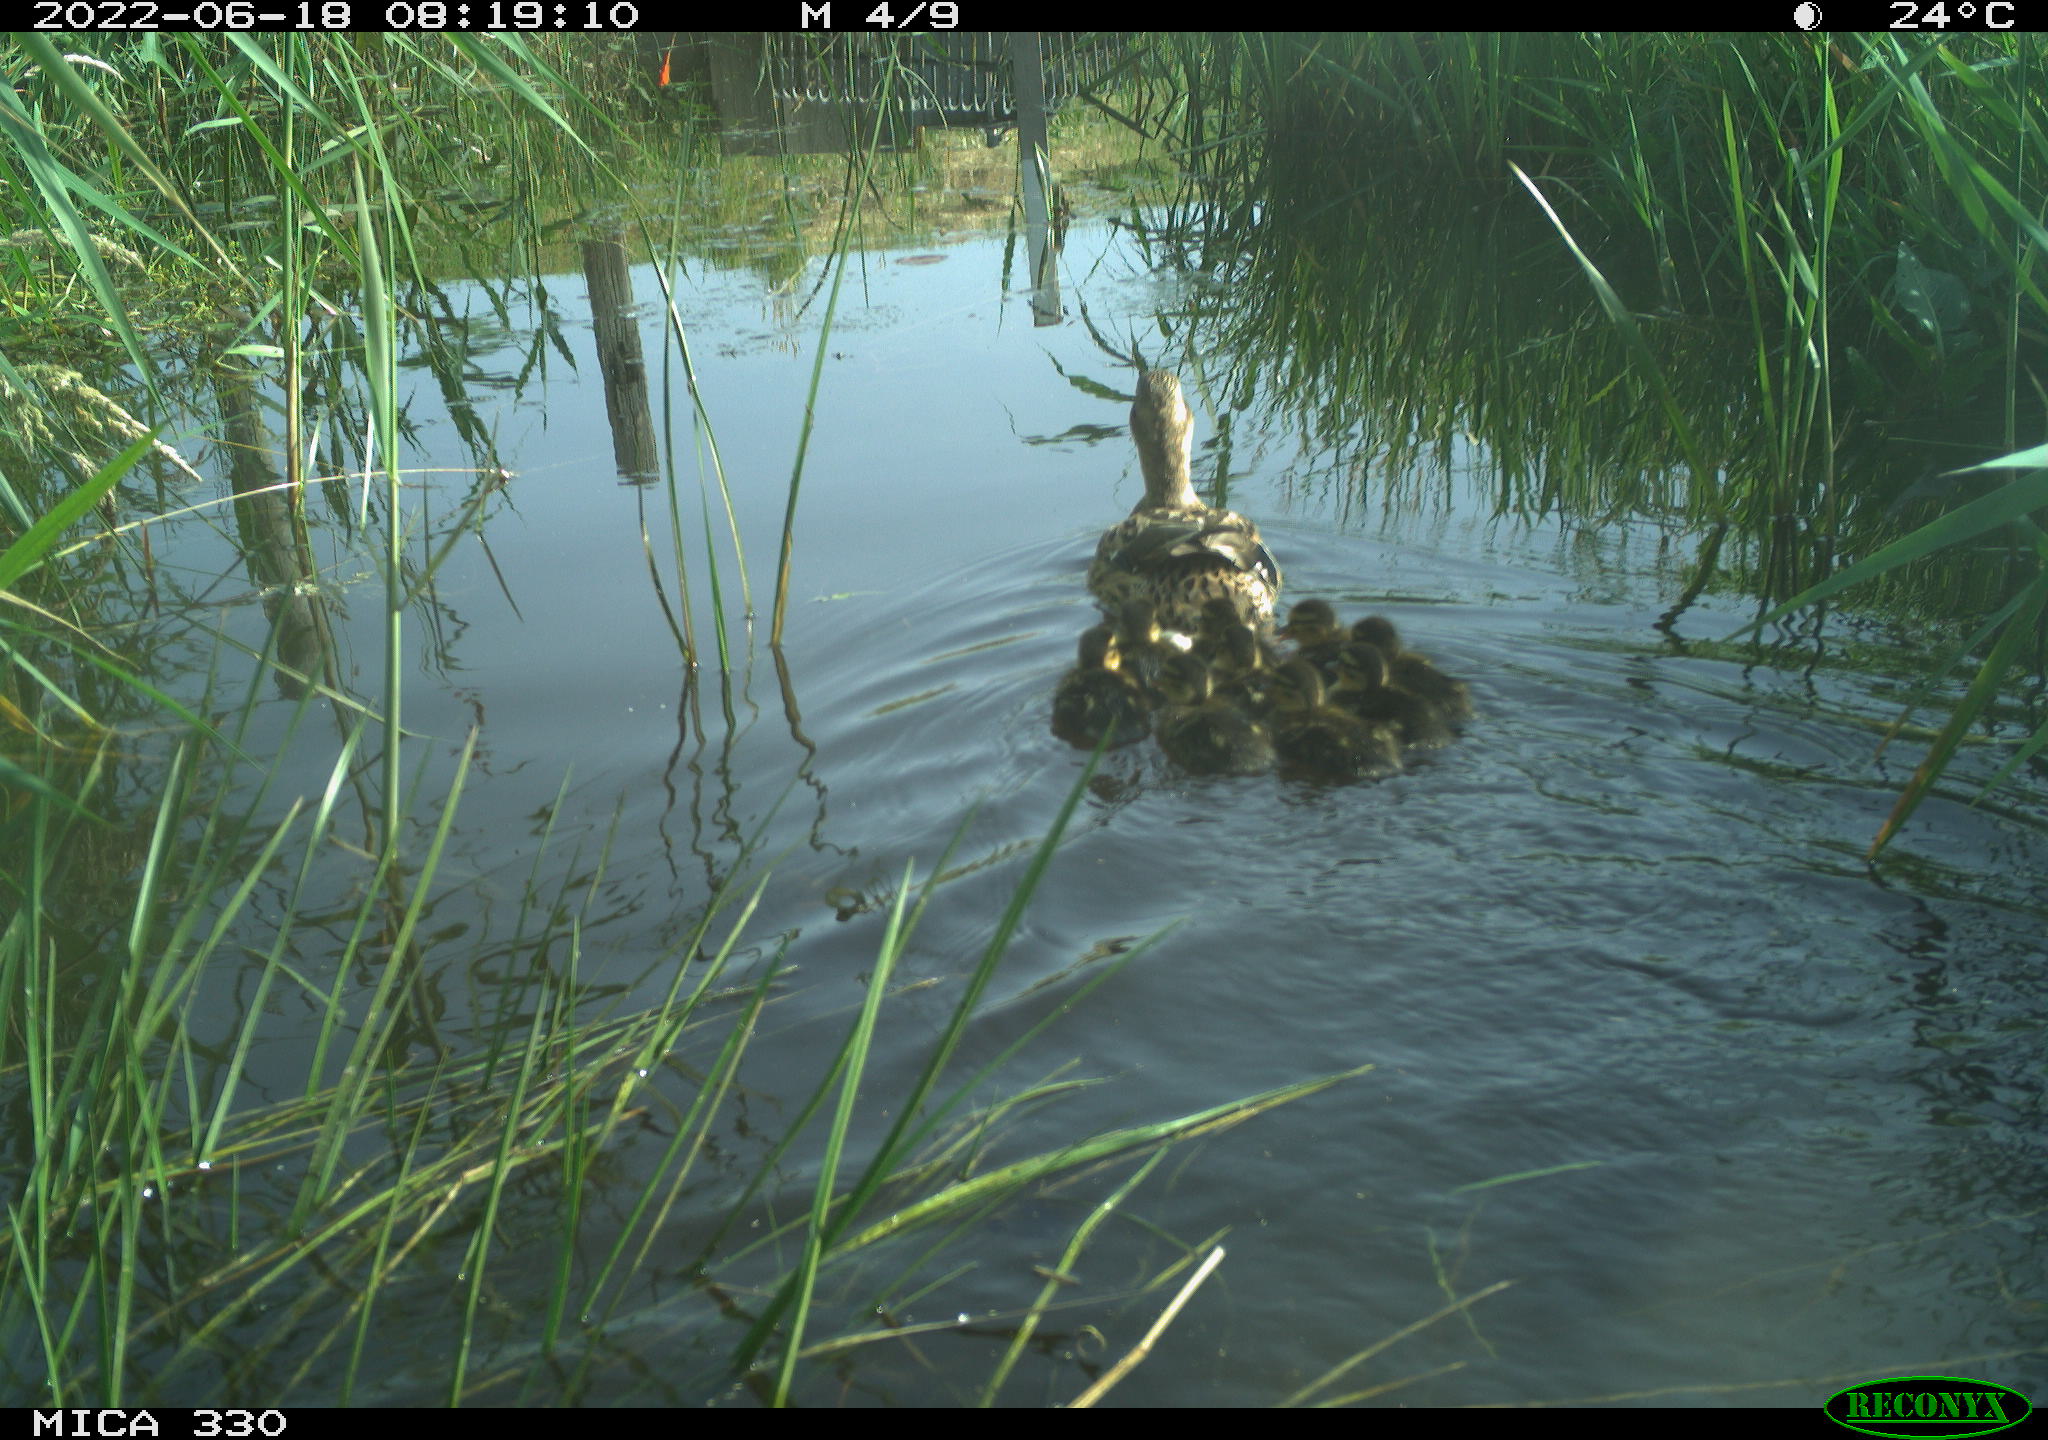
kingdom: Animalia
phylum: Chordata
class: Aves
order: Anseriformes
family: Anatidae
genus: Mareca
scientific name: Mareca strepera
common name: Gadwall
